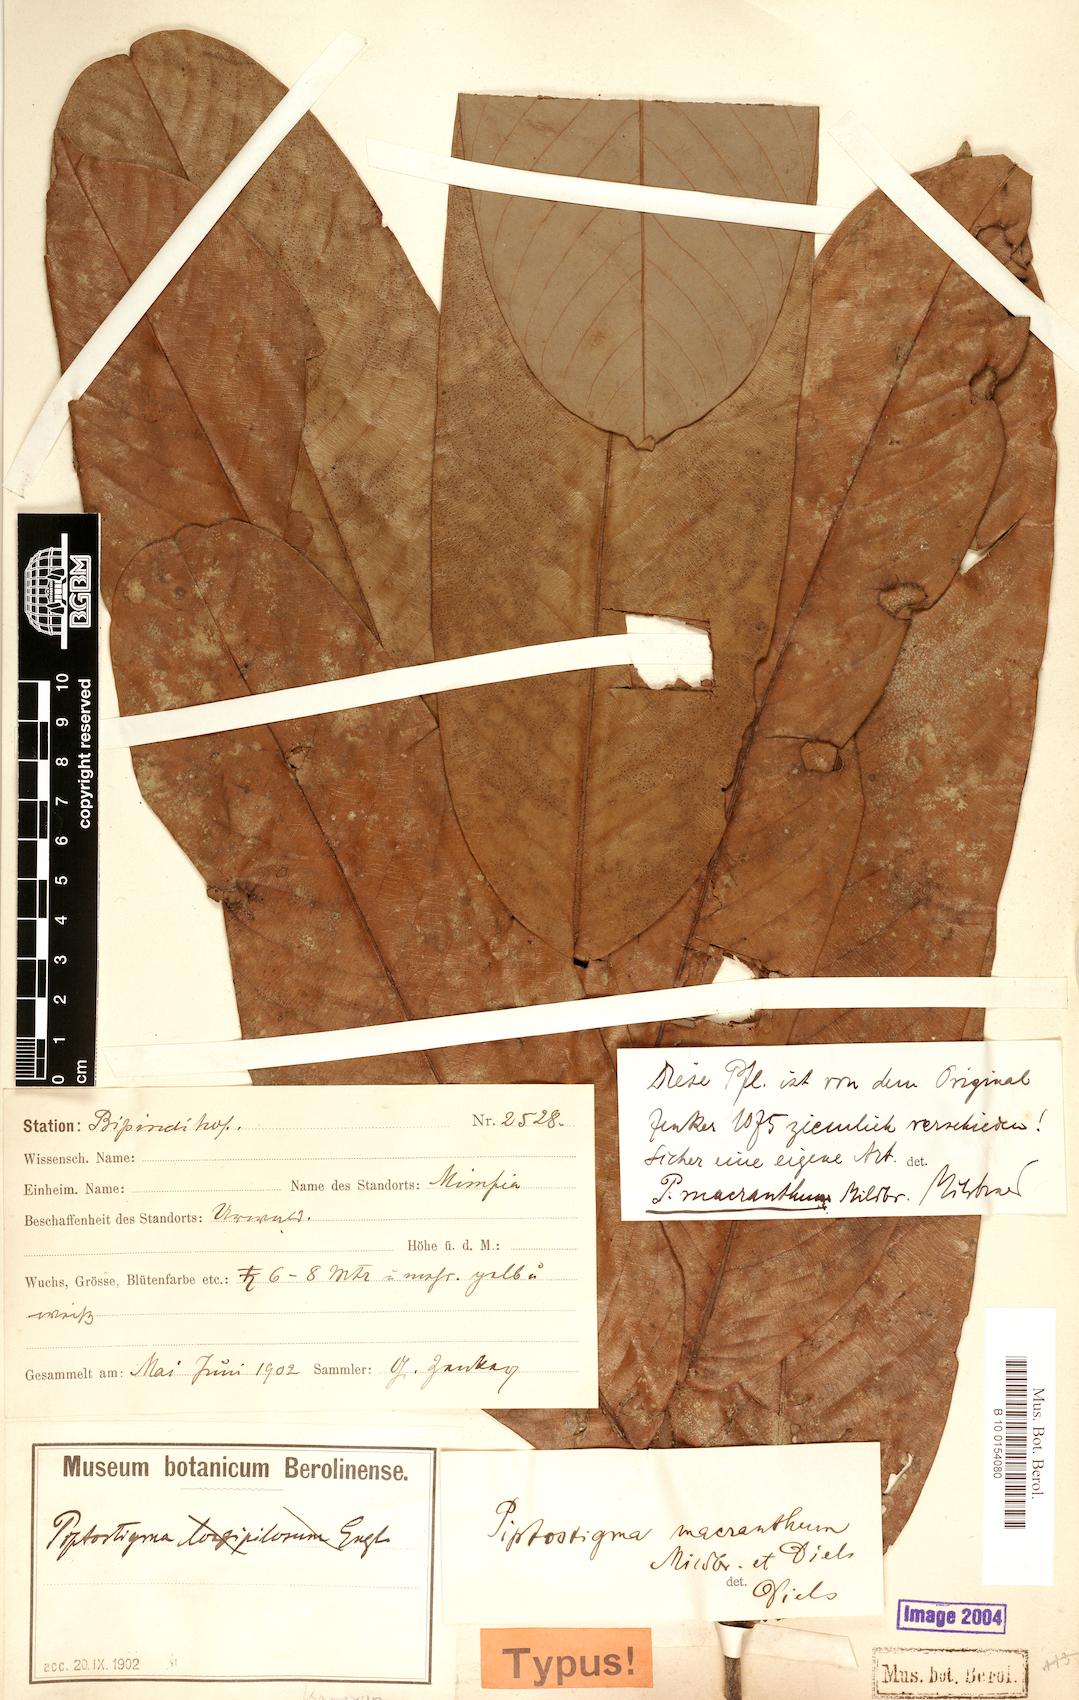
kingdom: Plantae
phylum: Tracheophyta
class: Magnoliopsida
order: Magnoliales
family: Annonaceae
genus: Piptostigma
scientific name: Piptostigma macranthum
